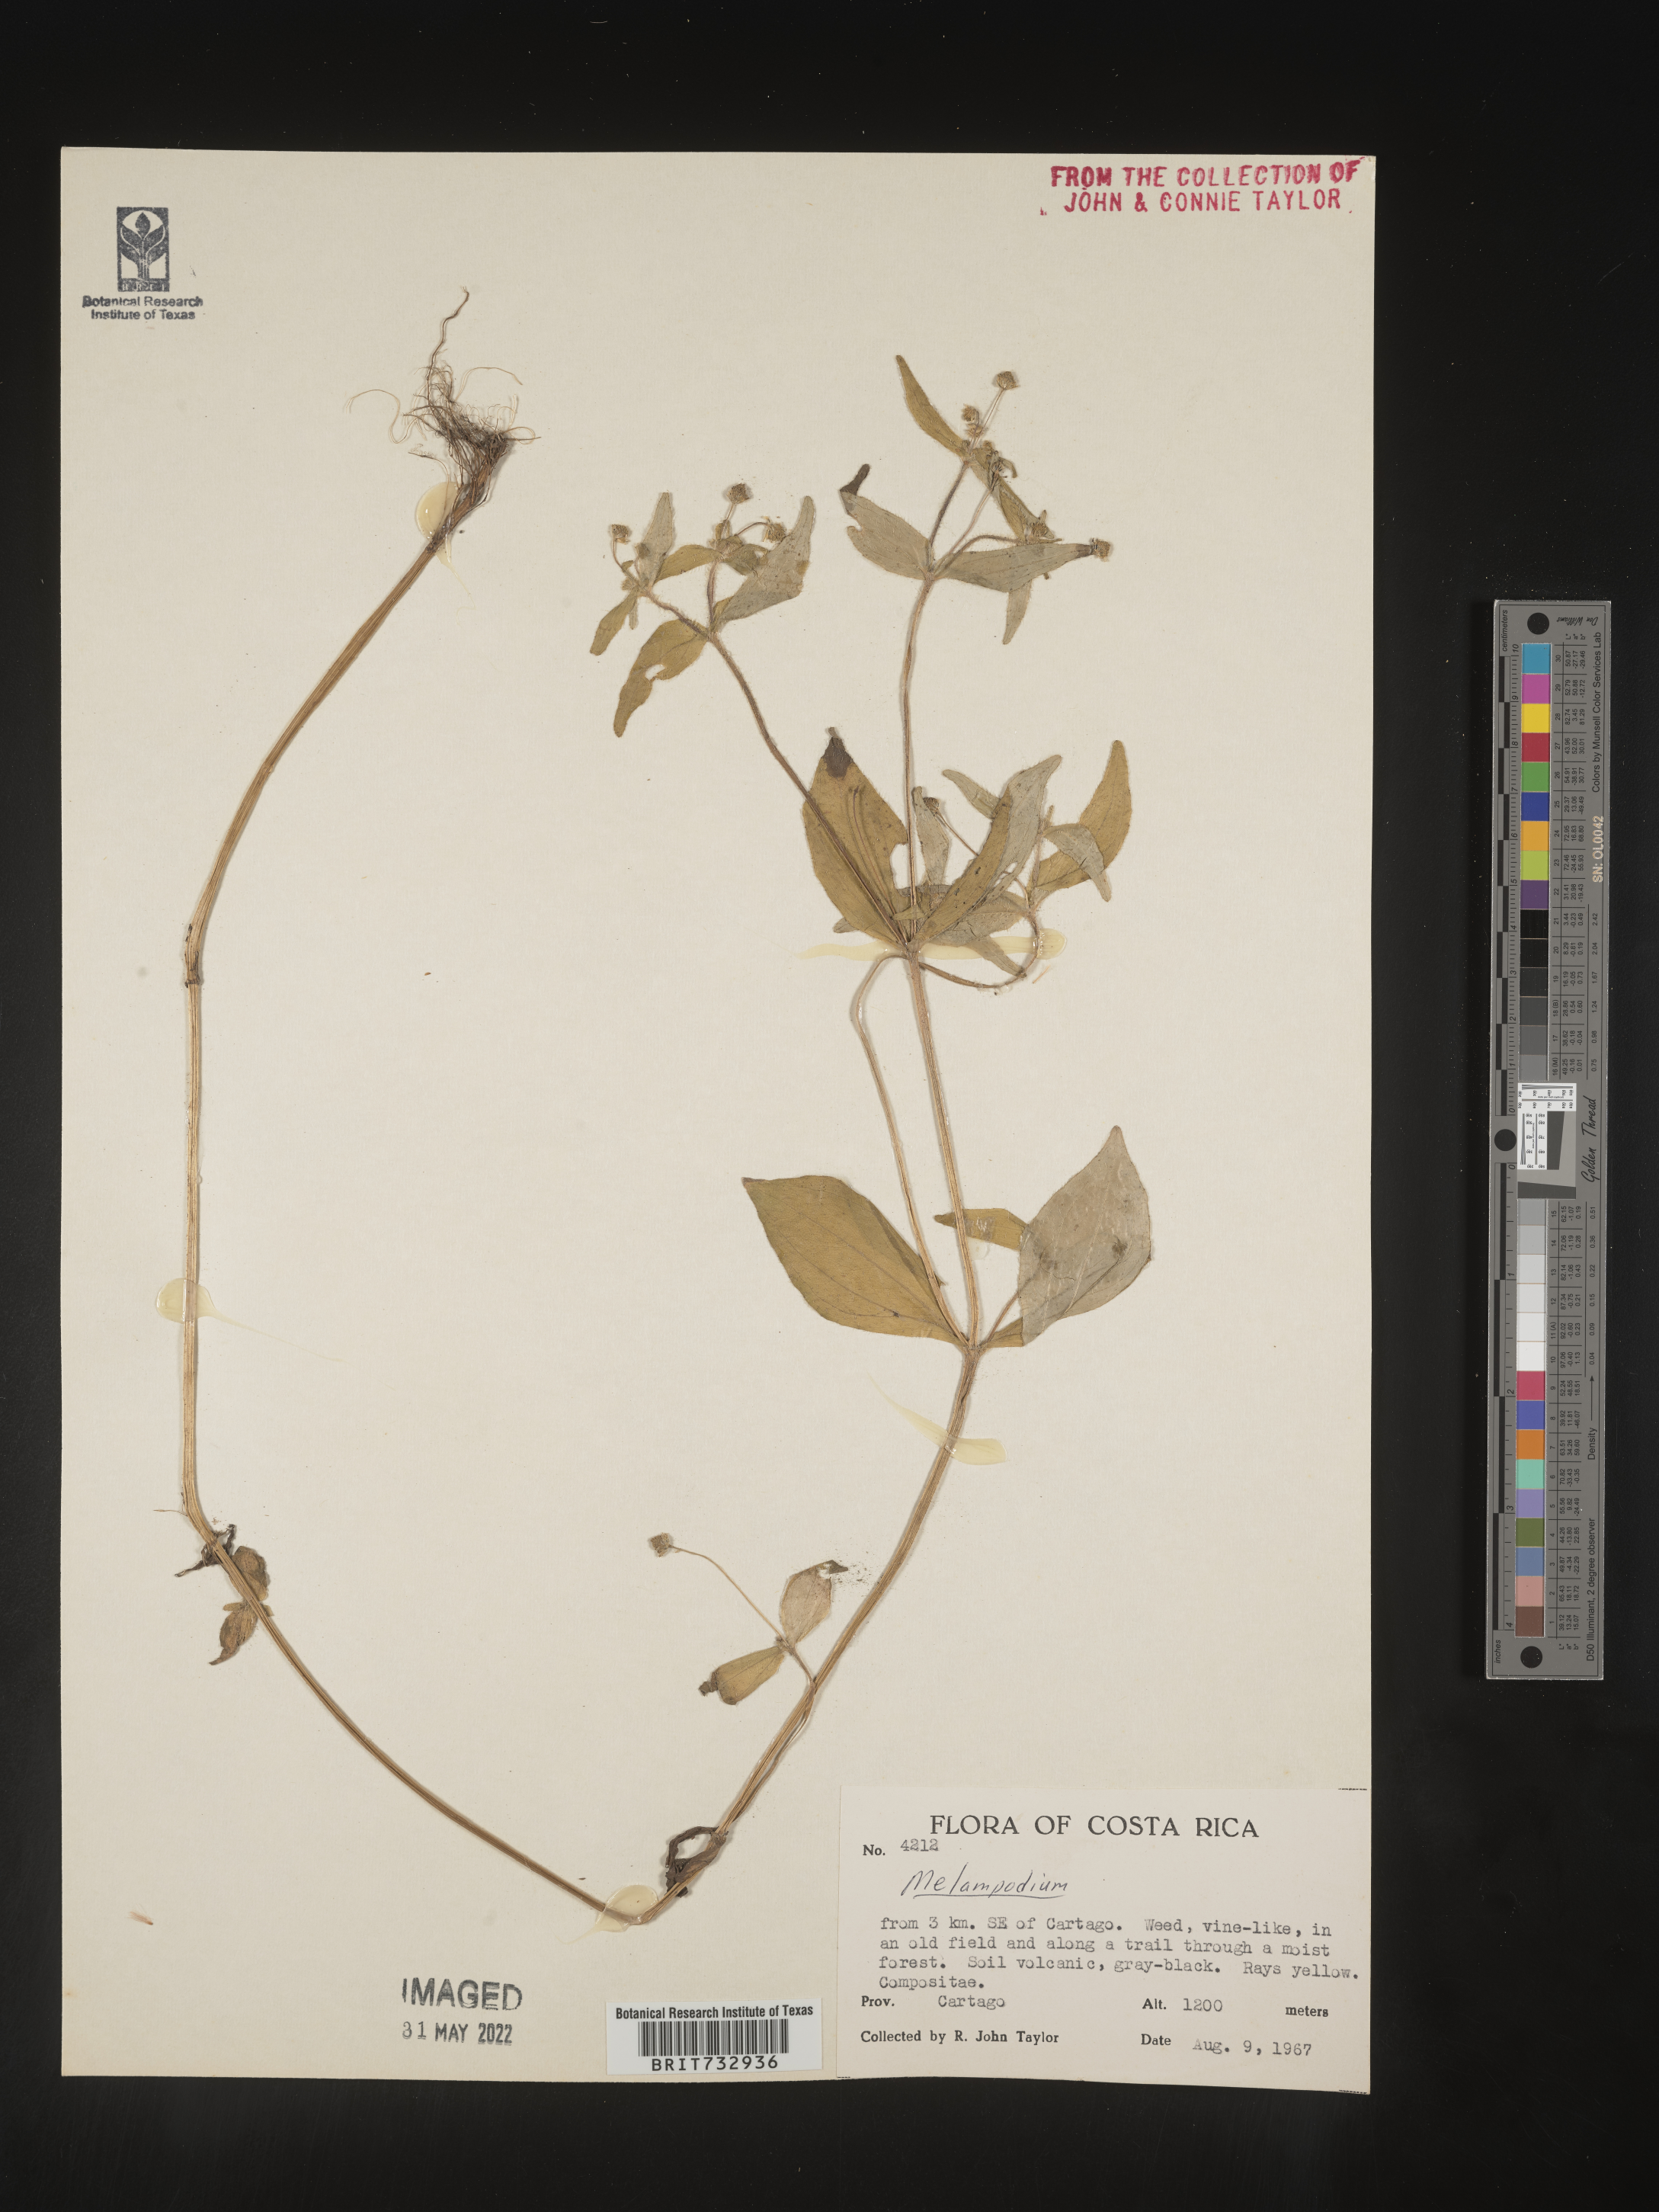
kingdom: Plantae
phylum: Tracheophyta
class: Magnoliopsida
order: Asterales
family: Asteraceae
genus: Melampodium
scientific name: Melampodium
